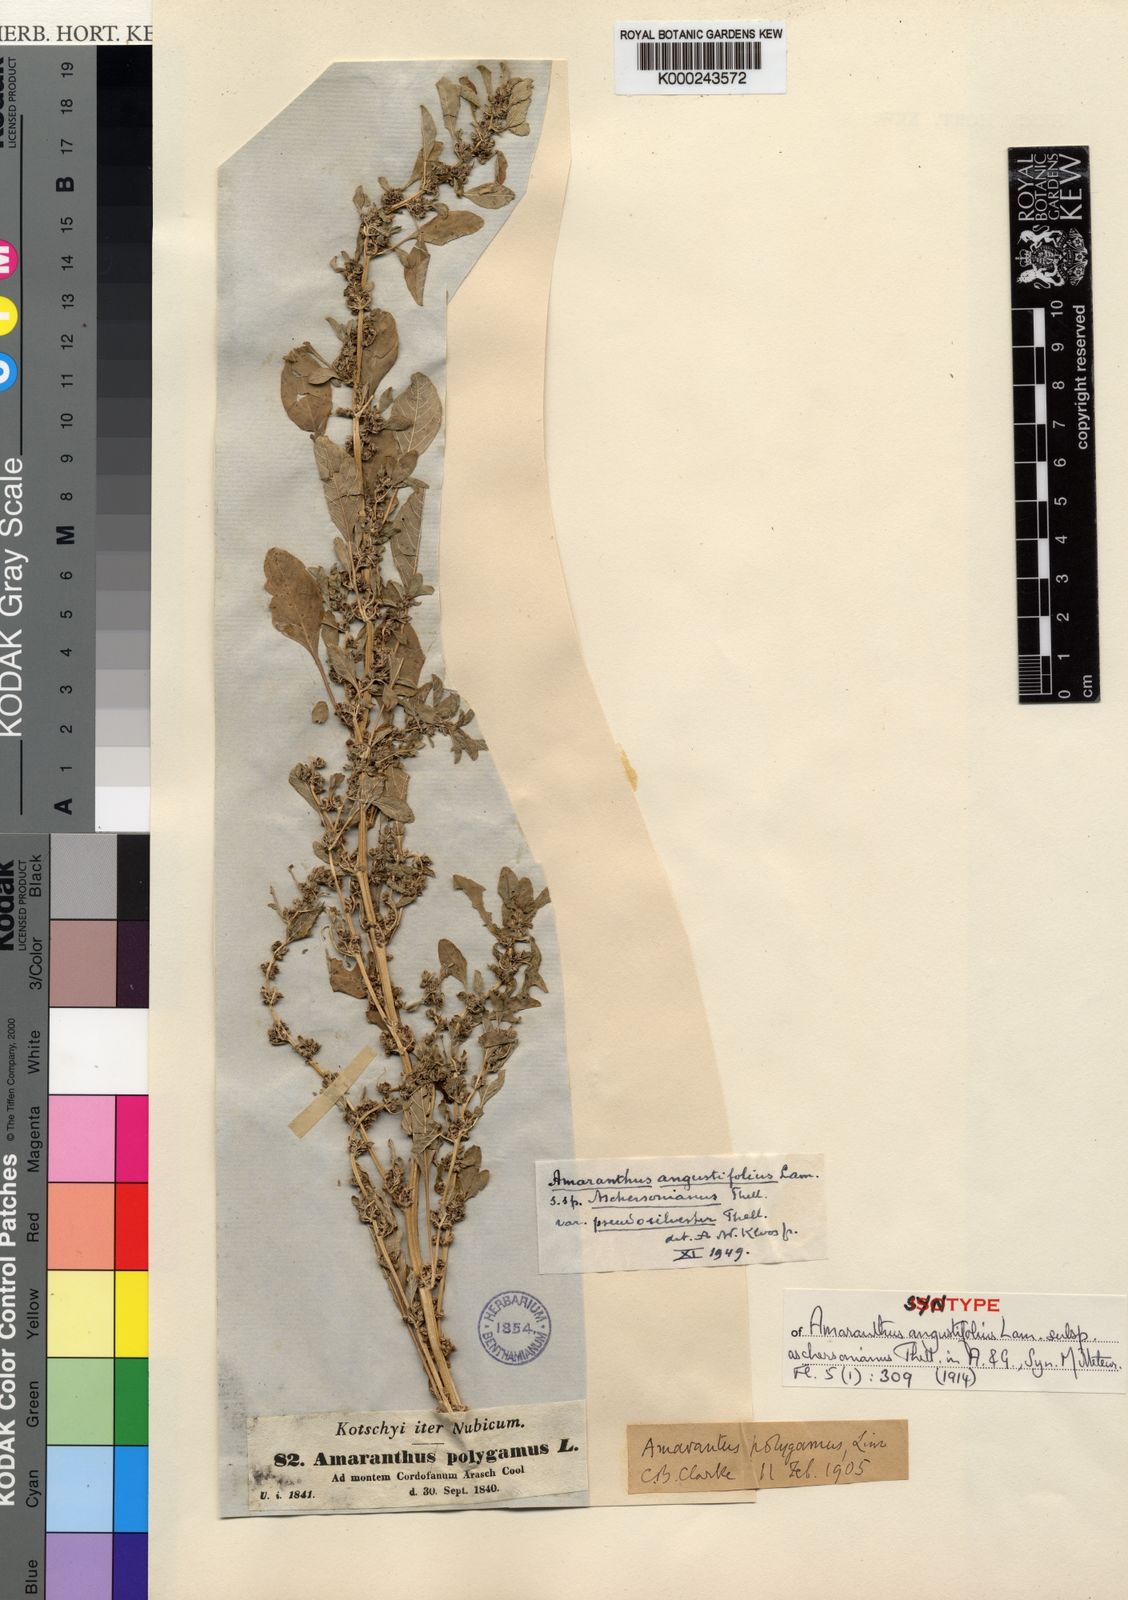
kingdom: Plantae
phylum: Tracheophyta
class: Magnoliopsida
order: Caryophyllales
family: Amaranthaceae
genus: Amaranthus
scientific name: Amaranthus graecizans
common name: Mediterranean amaranth
